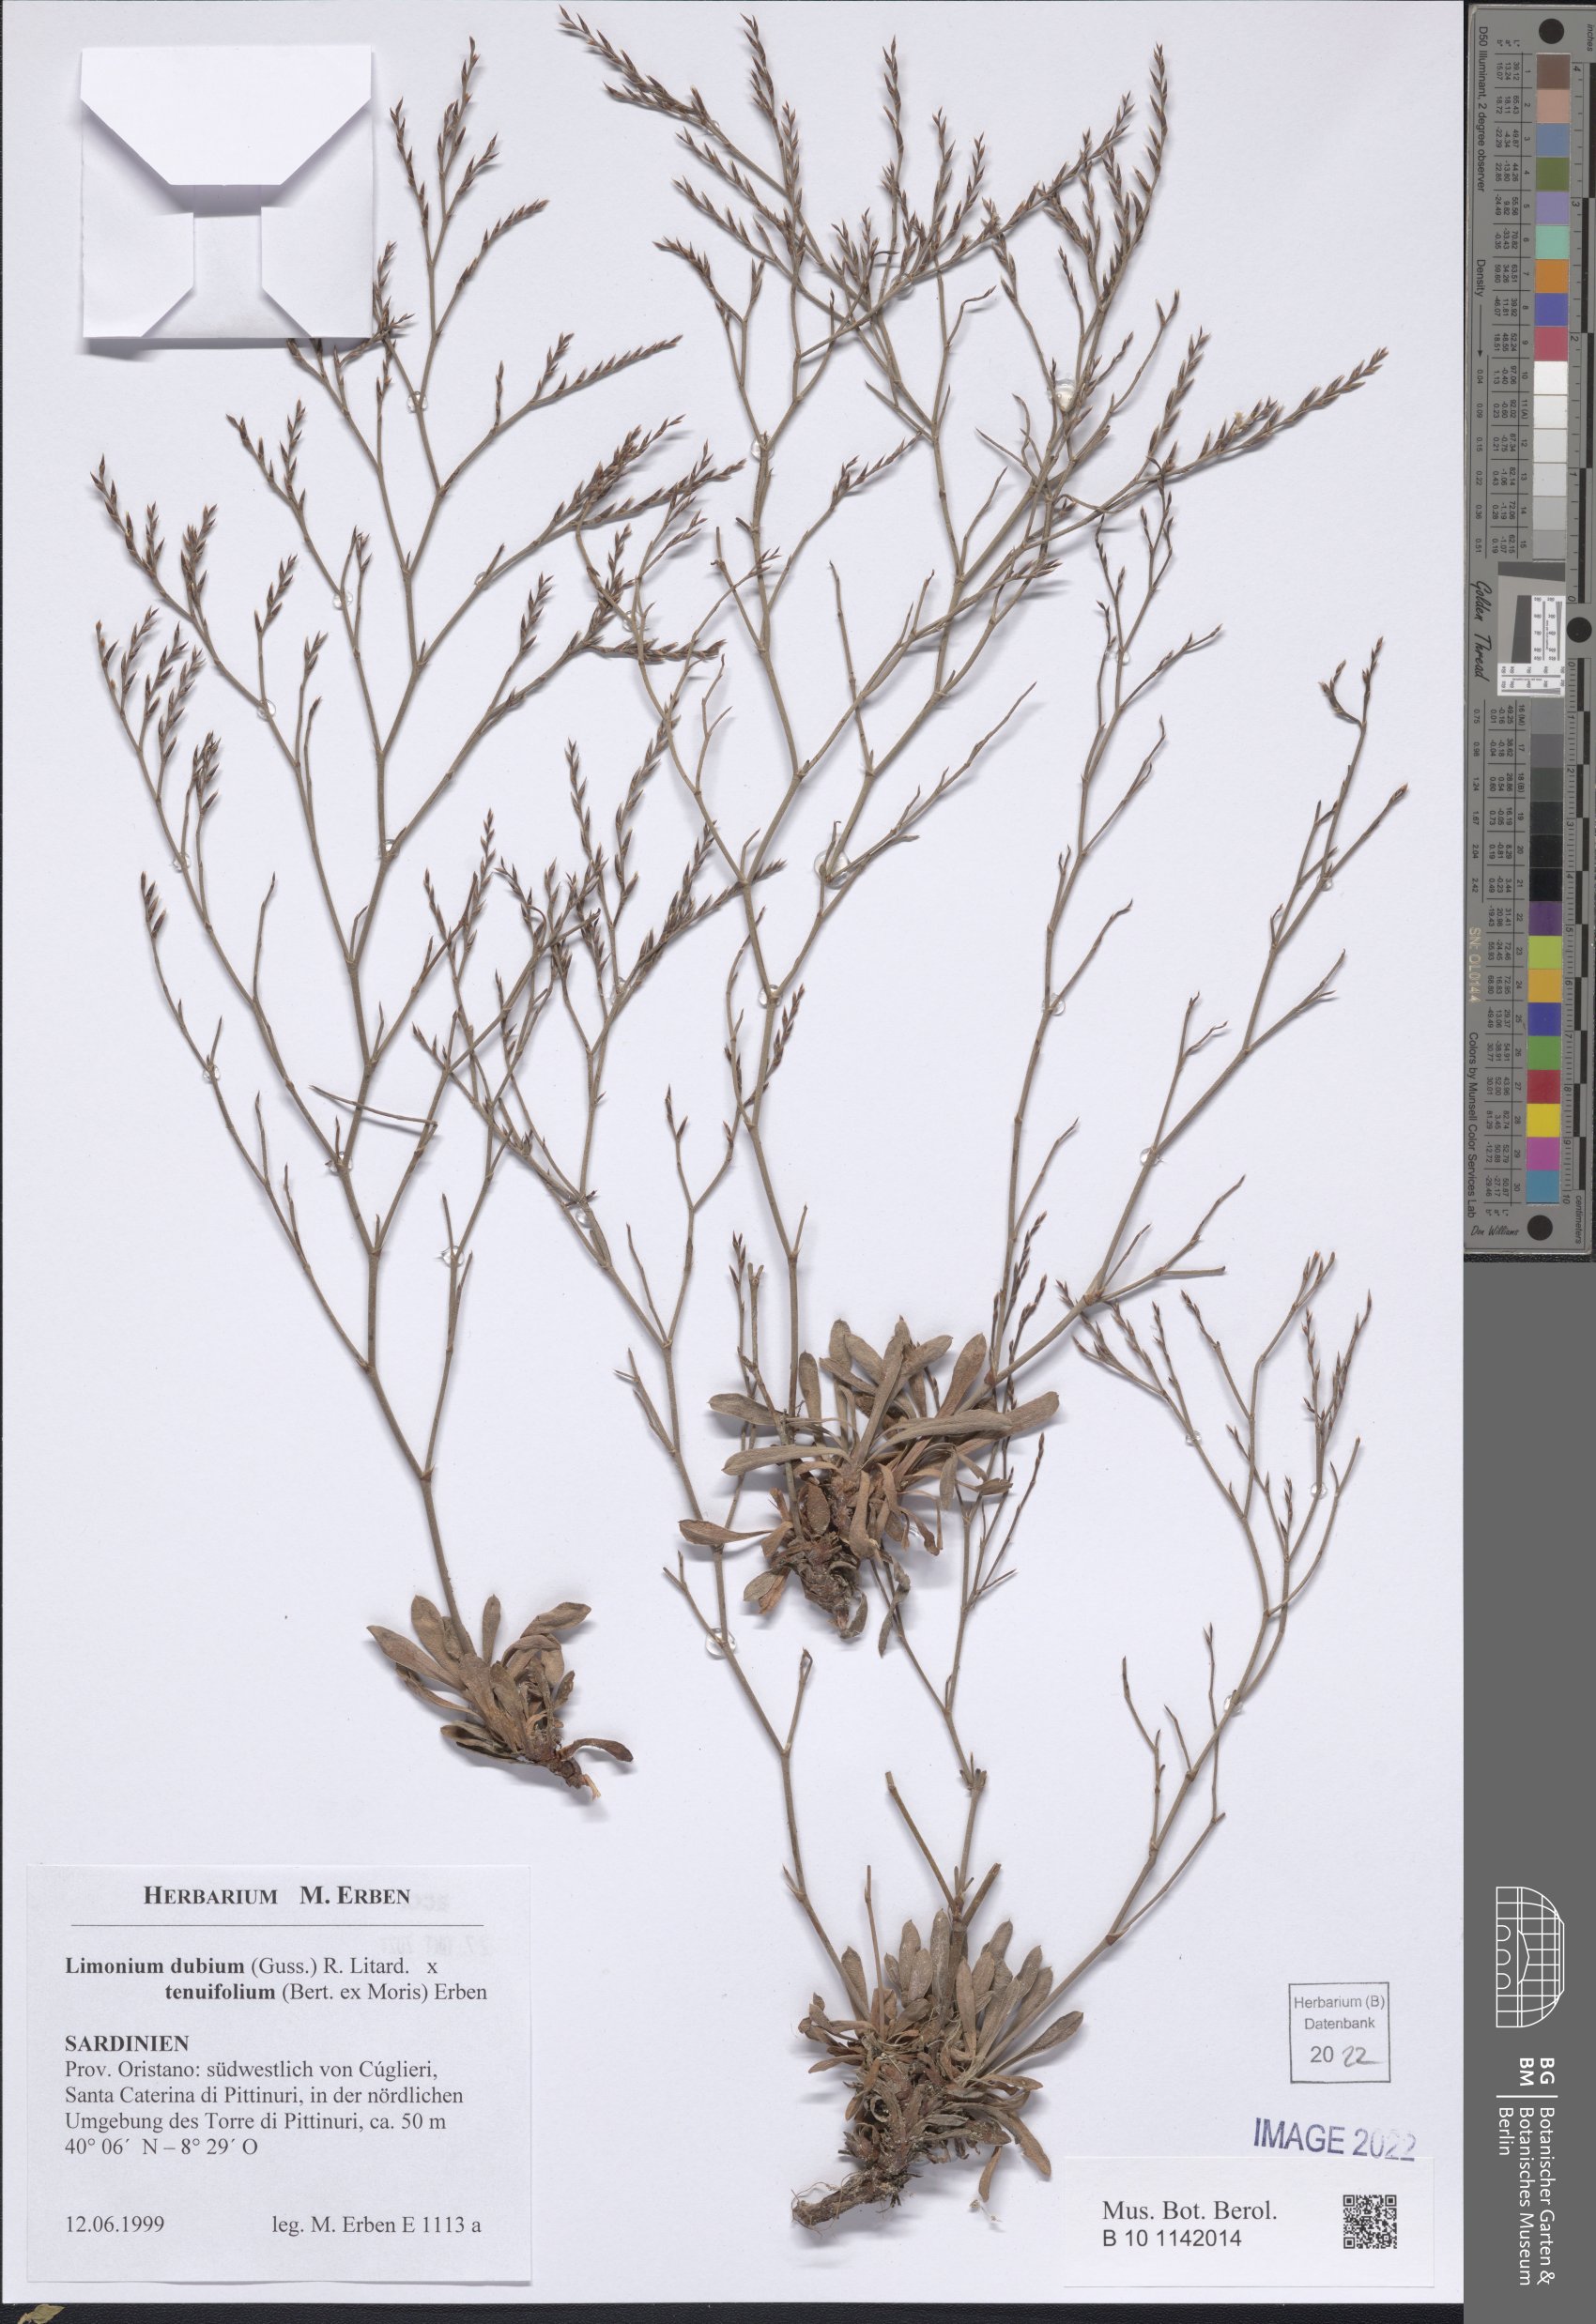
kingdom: Plantae
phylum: Tracheophyta
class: Magnoliopsida
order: Caryophyllales
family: Plumbaginaceae
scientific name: Plumbaginaceae
